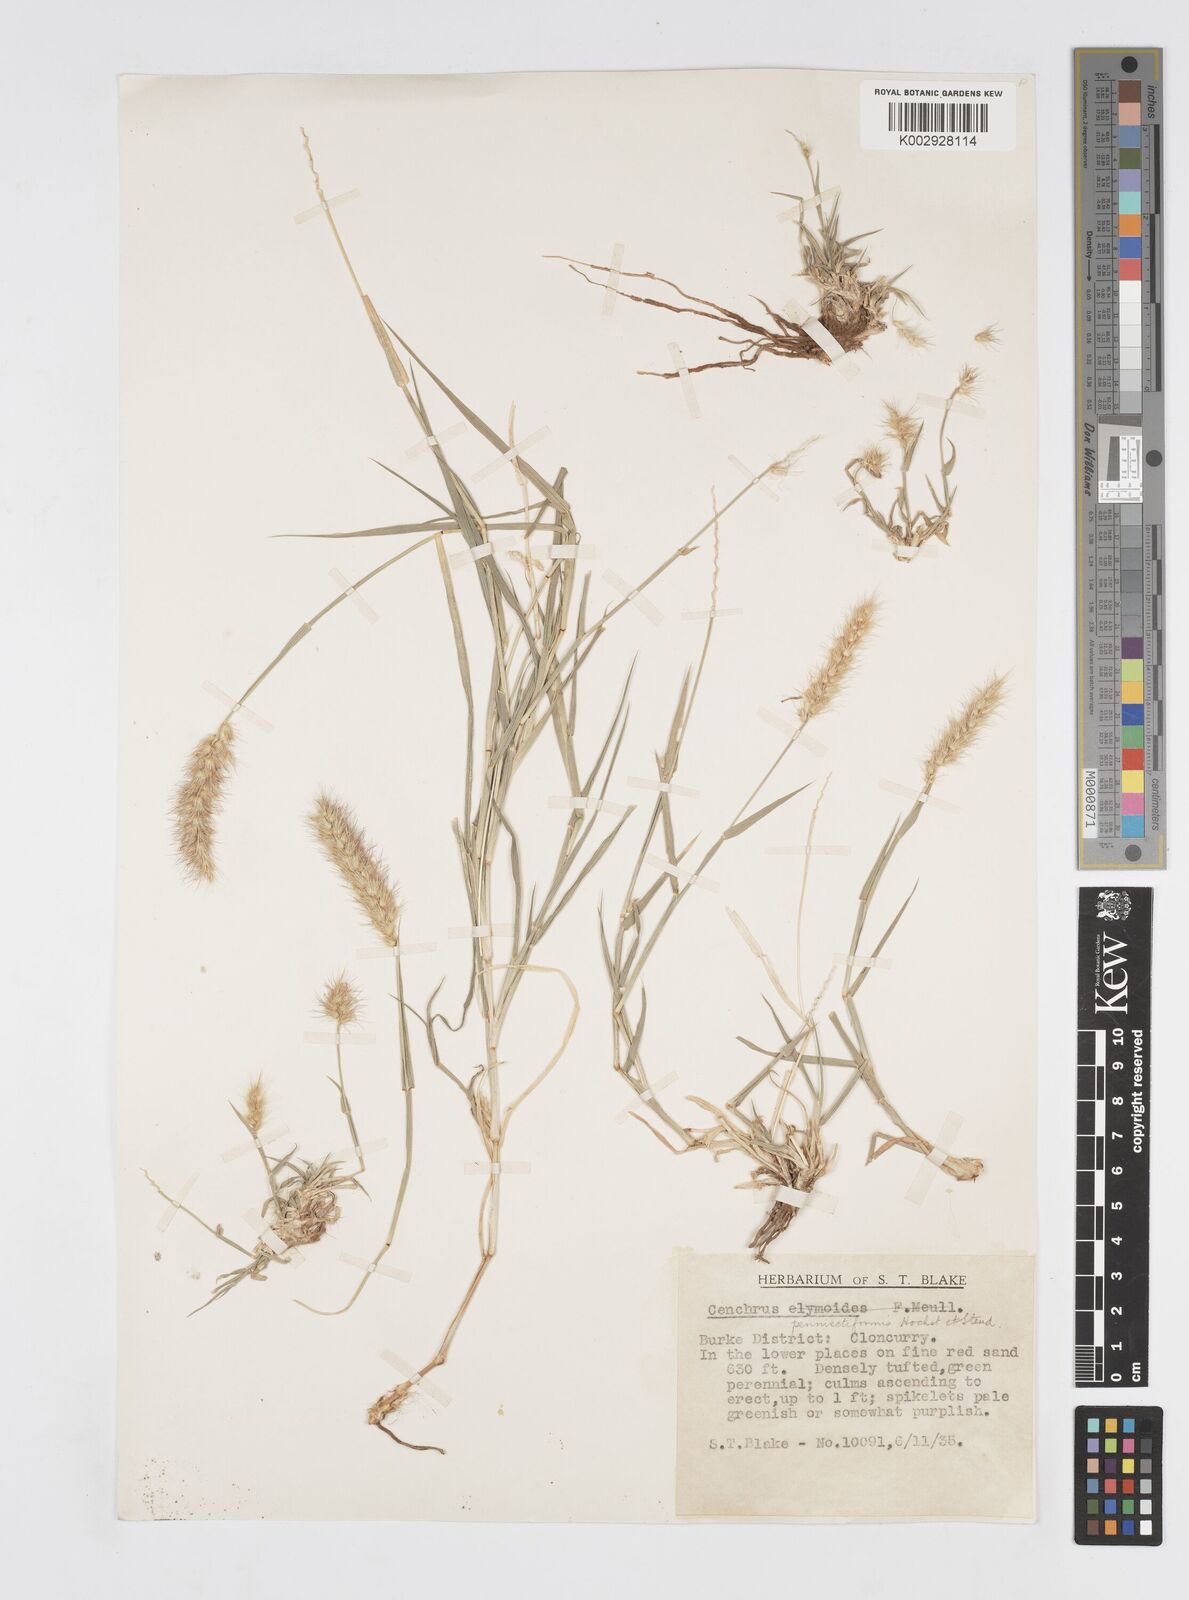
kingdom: Plantae
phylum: Tracheophyta
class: Liliopsida
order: Poales
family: Poaceae
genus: Cenchrus
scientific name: Cenchrus ciliaris
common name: Buffelgrass
